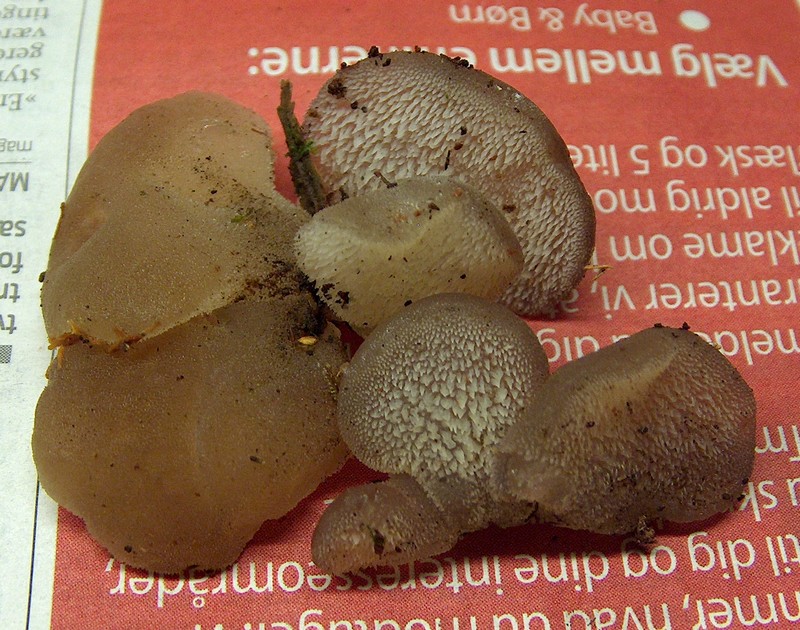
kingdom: Fungi
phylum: Basidiomycota
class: Agaricomycetes
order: Auriculariales
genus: Pseudohydnum
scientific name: Pseudohydnum gelatinosum
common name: bævretand
